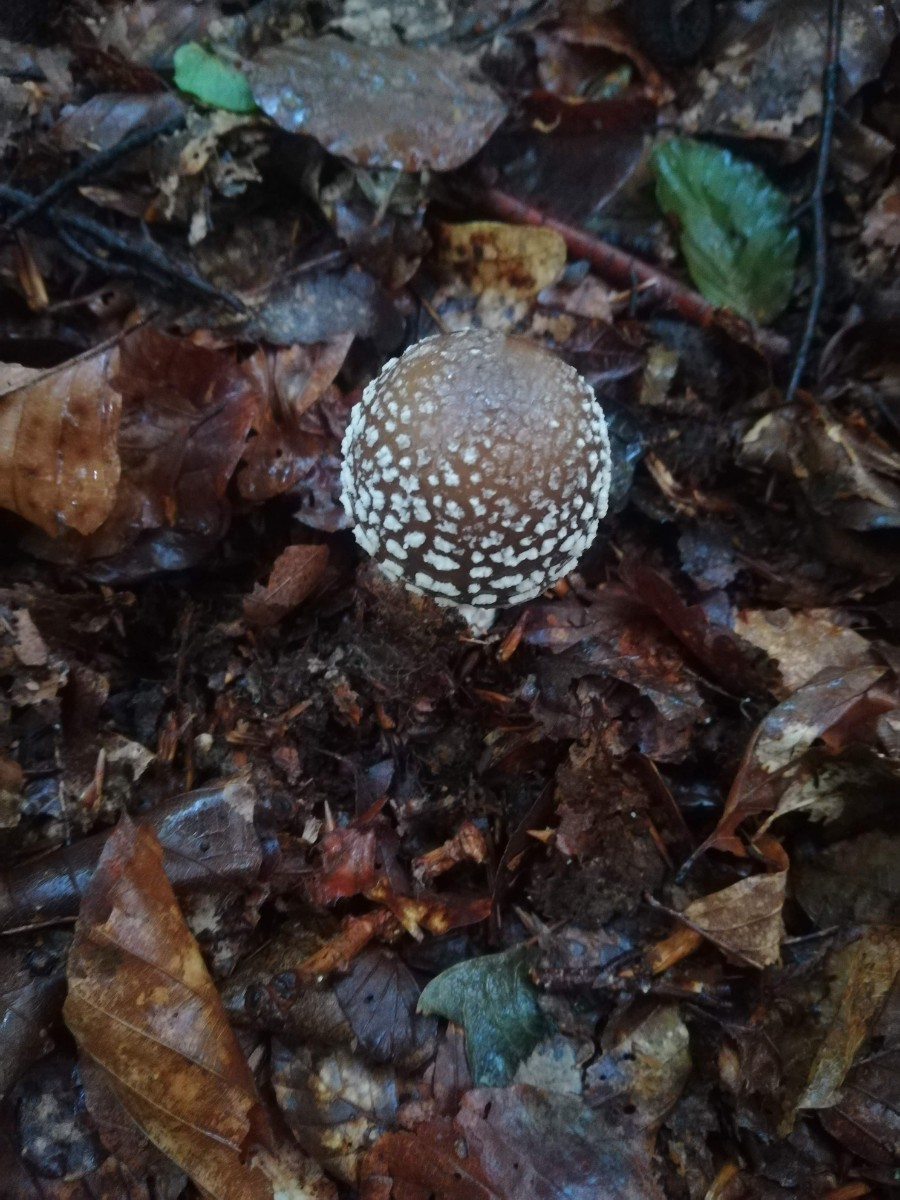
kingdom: Fungi
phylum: Basidiomycota
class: Agaricomycetes
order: Agaricales
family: Amanitaceae
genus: Amanita
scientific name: Amanita pantherina
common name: panter-fluesvamp
